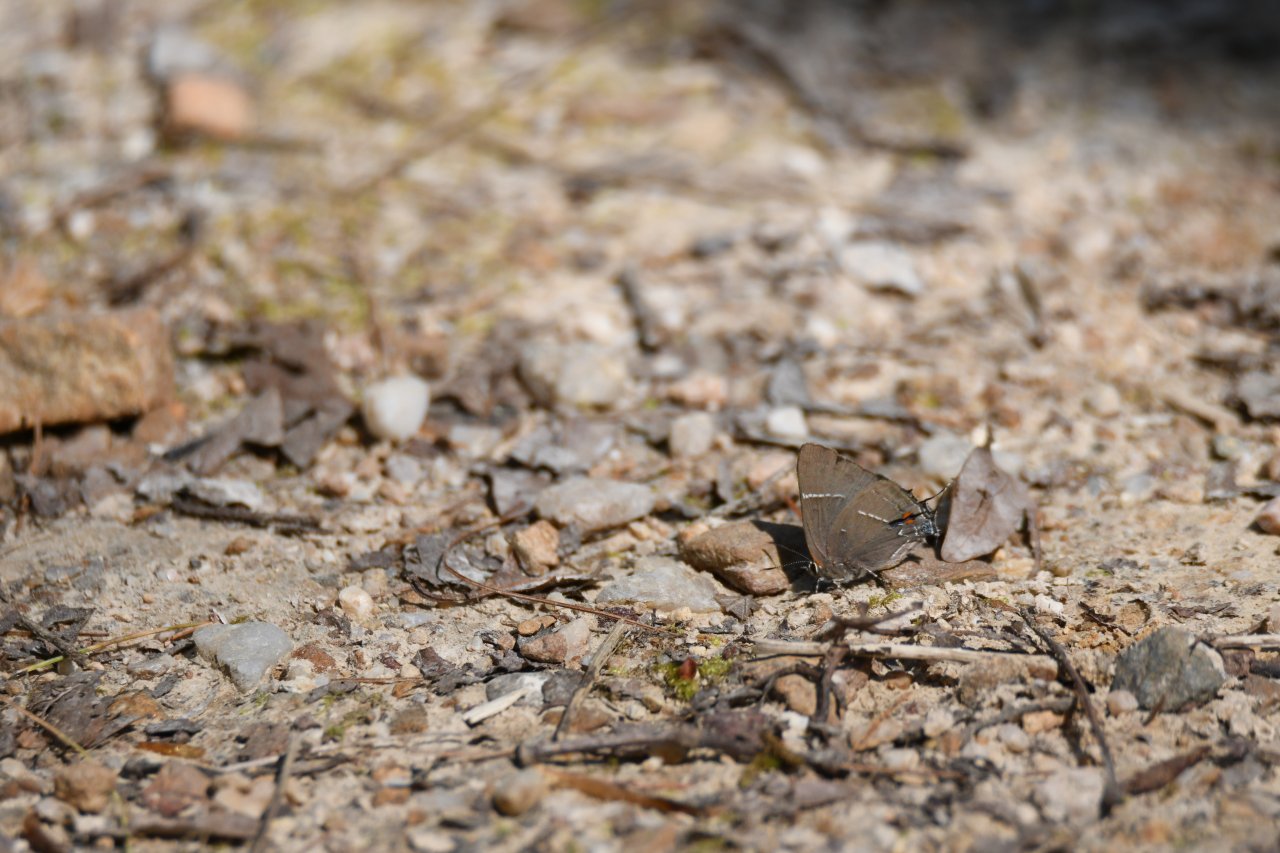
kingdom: Animalia
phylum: Arthropoda
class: Insecta
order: Lepidoptera
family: Lycaenidae
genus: Parrhasius
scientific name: Parrhasius m-album
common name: White-m Hairstreak
